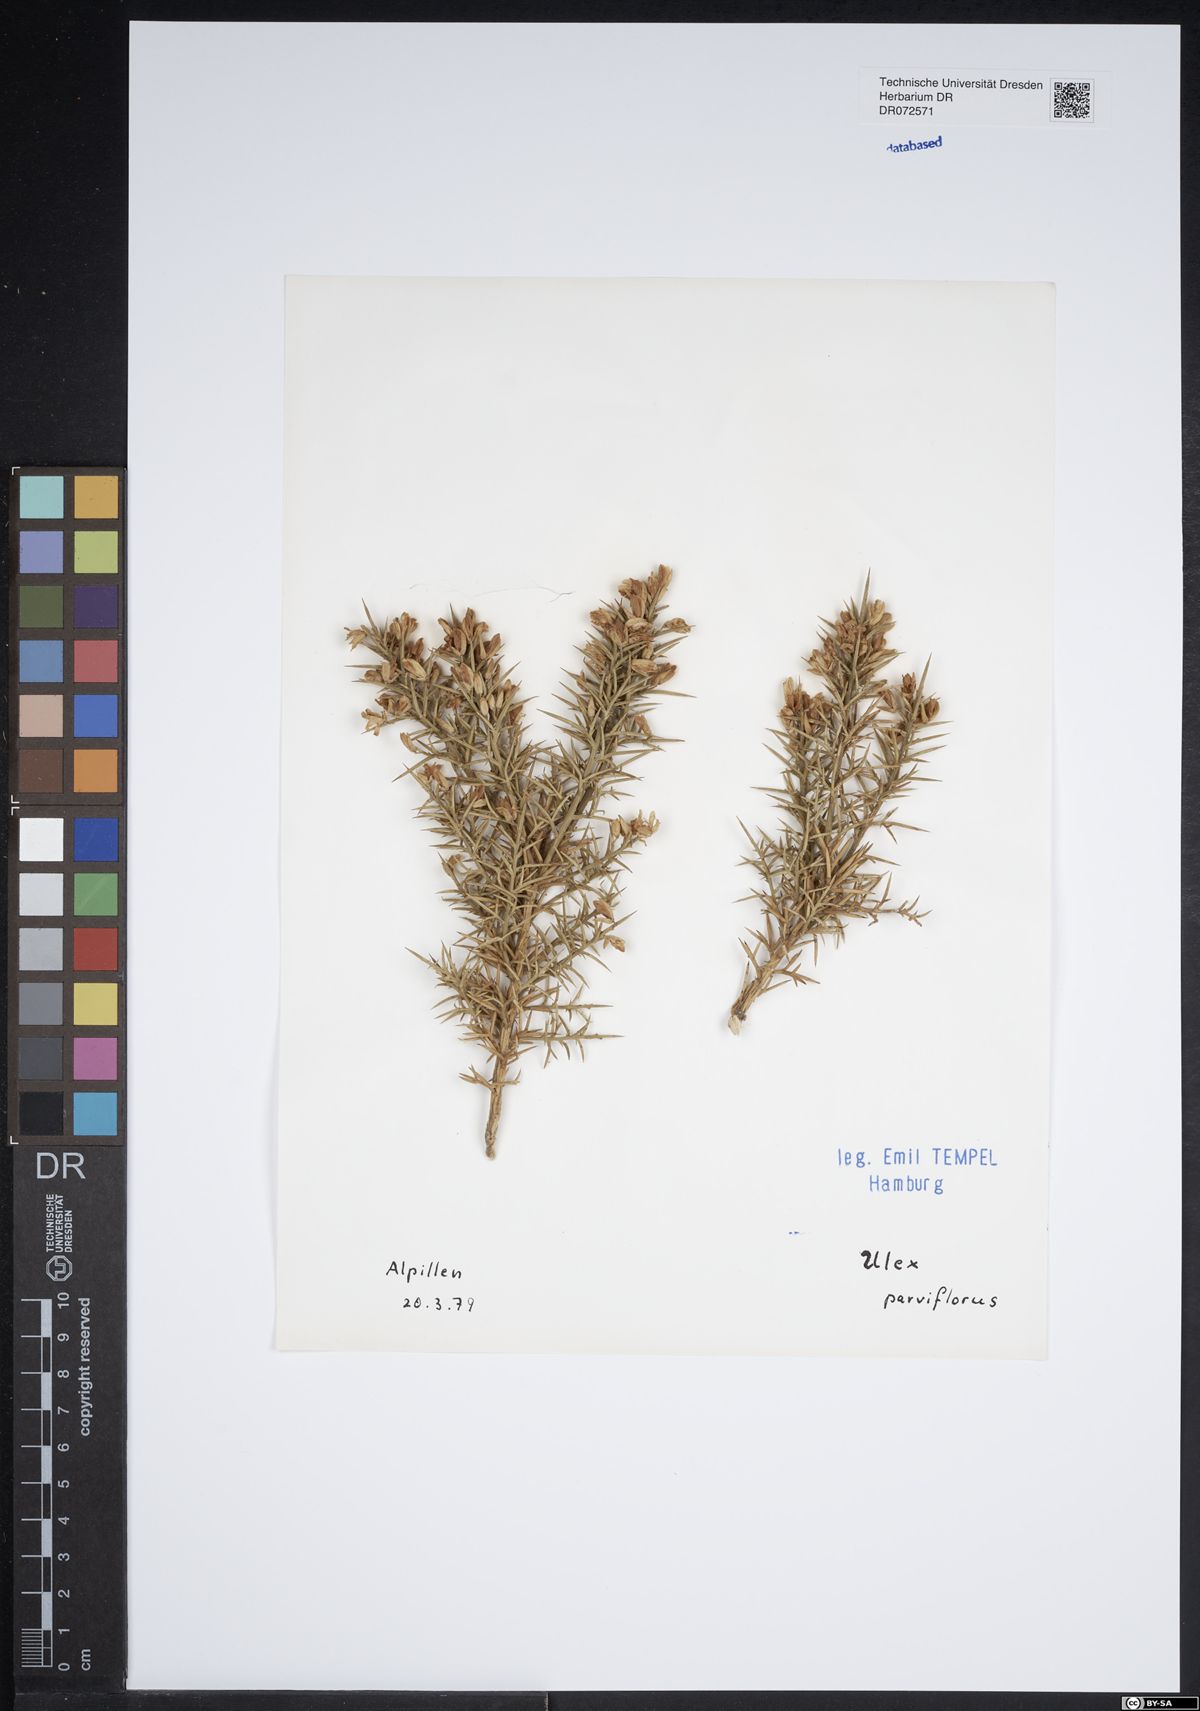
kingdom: Plantae
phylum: Tracheophyta
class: Magnoliopsida
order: Fabales
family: Fabaceae
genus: Ulex
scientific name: Ulex parviflorus
